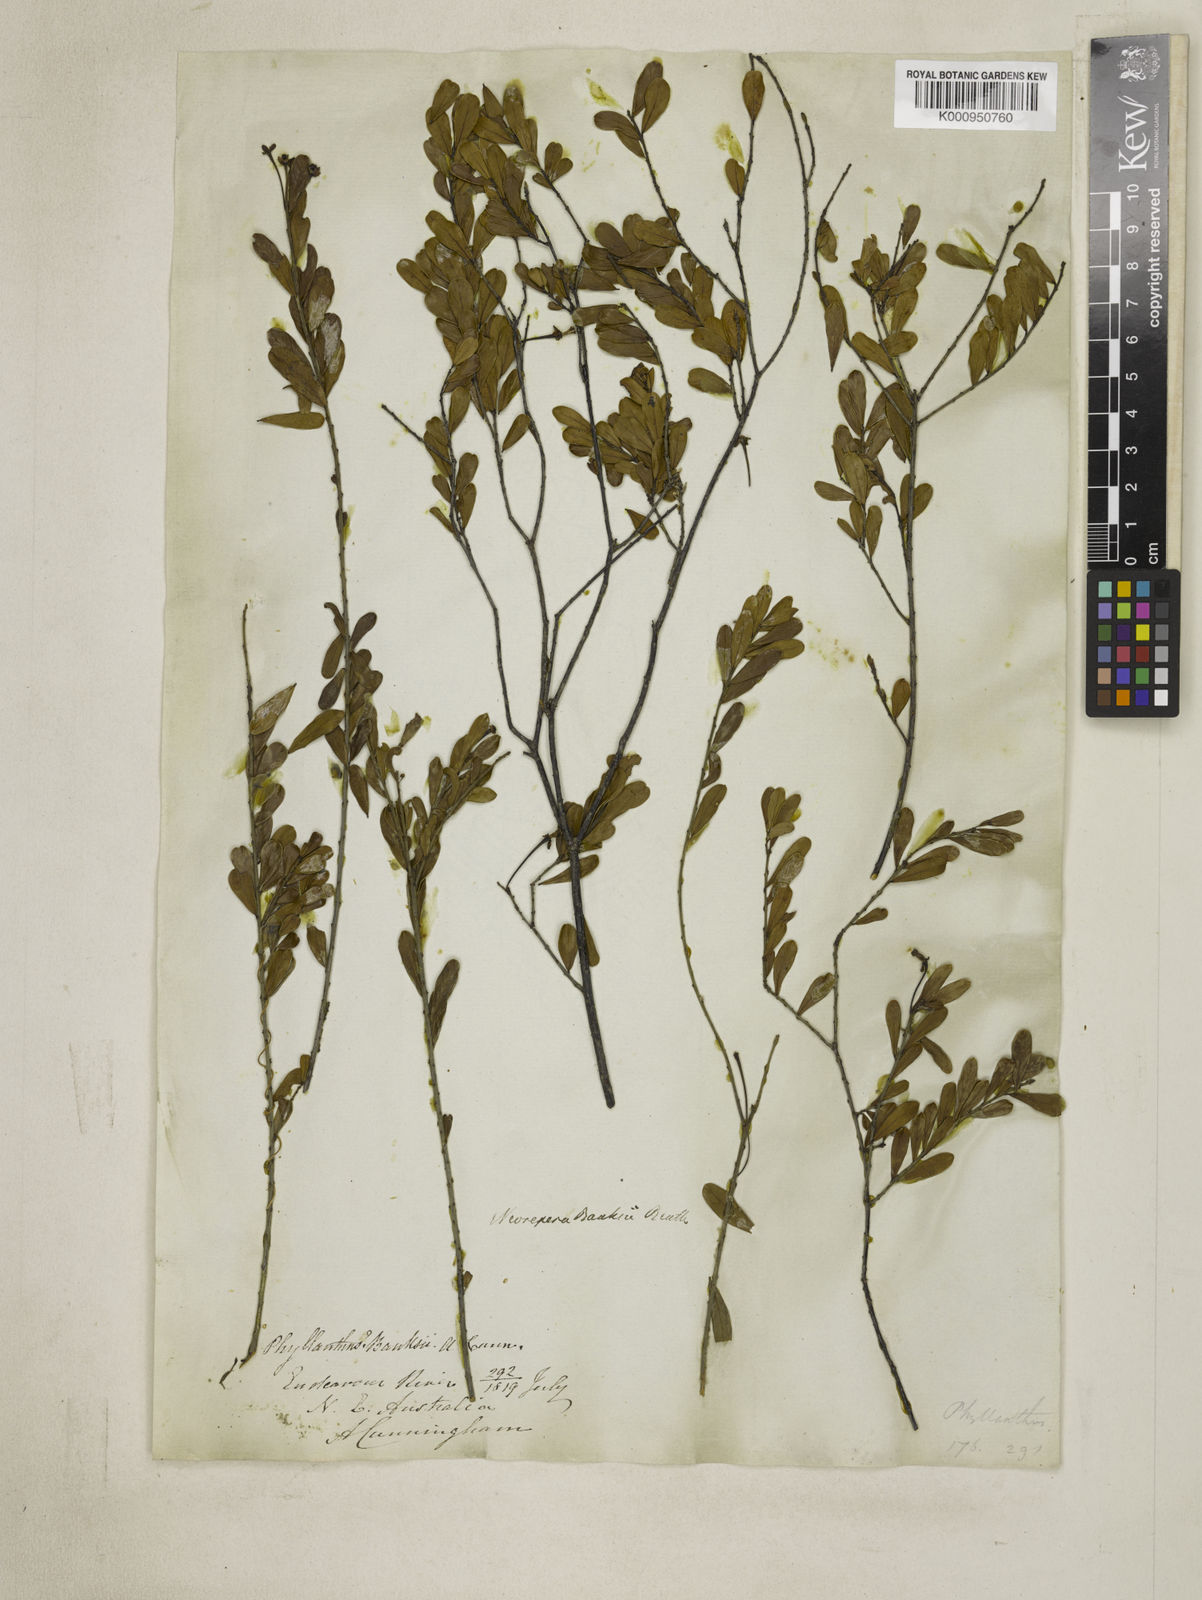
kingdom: Plantae
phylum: Tracheophyta
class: Magnoliopsida
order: Malpighiales
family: Picrodendraceae
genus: Neoroepera
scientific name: Neoroepera banksii
